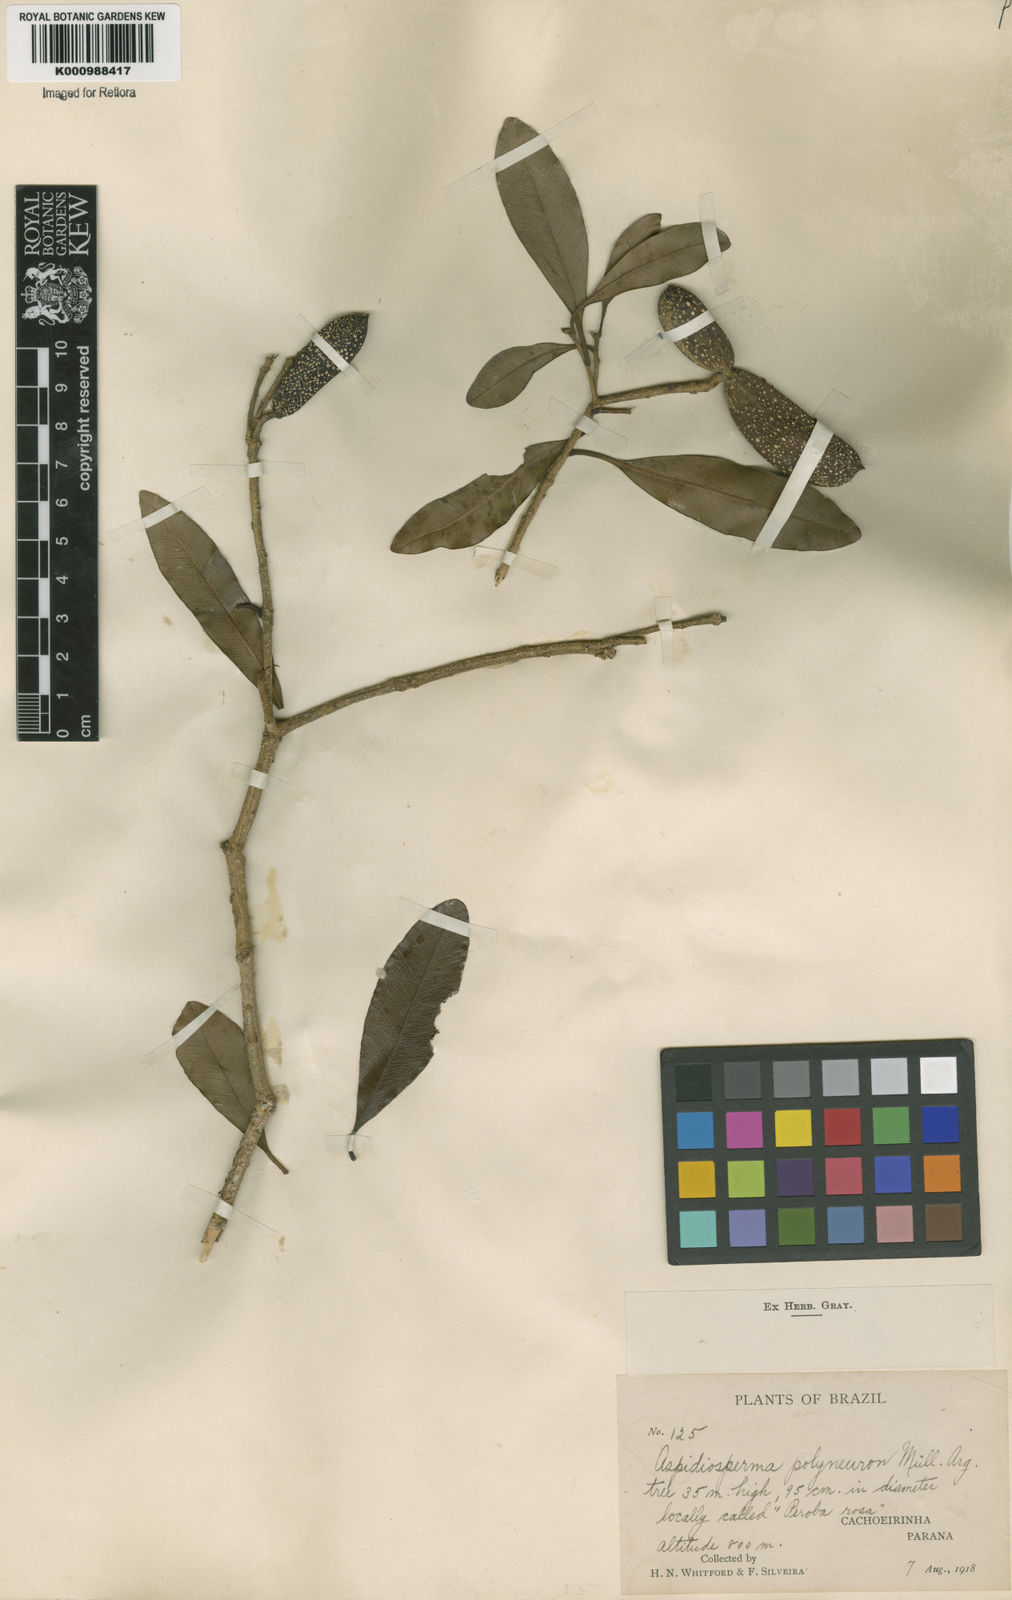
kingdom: Plantae
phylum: Tracheophyta
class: Magnoliopsida
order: Gentianales
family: Apocynaceae
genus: Aspidosperma
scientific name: Aspidosperma
